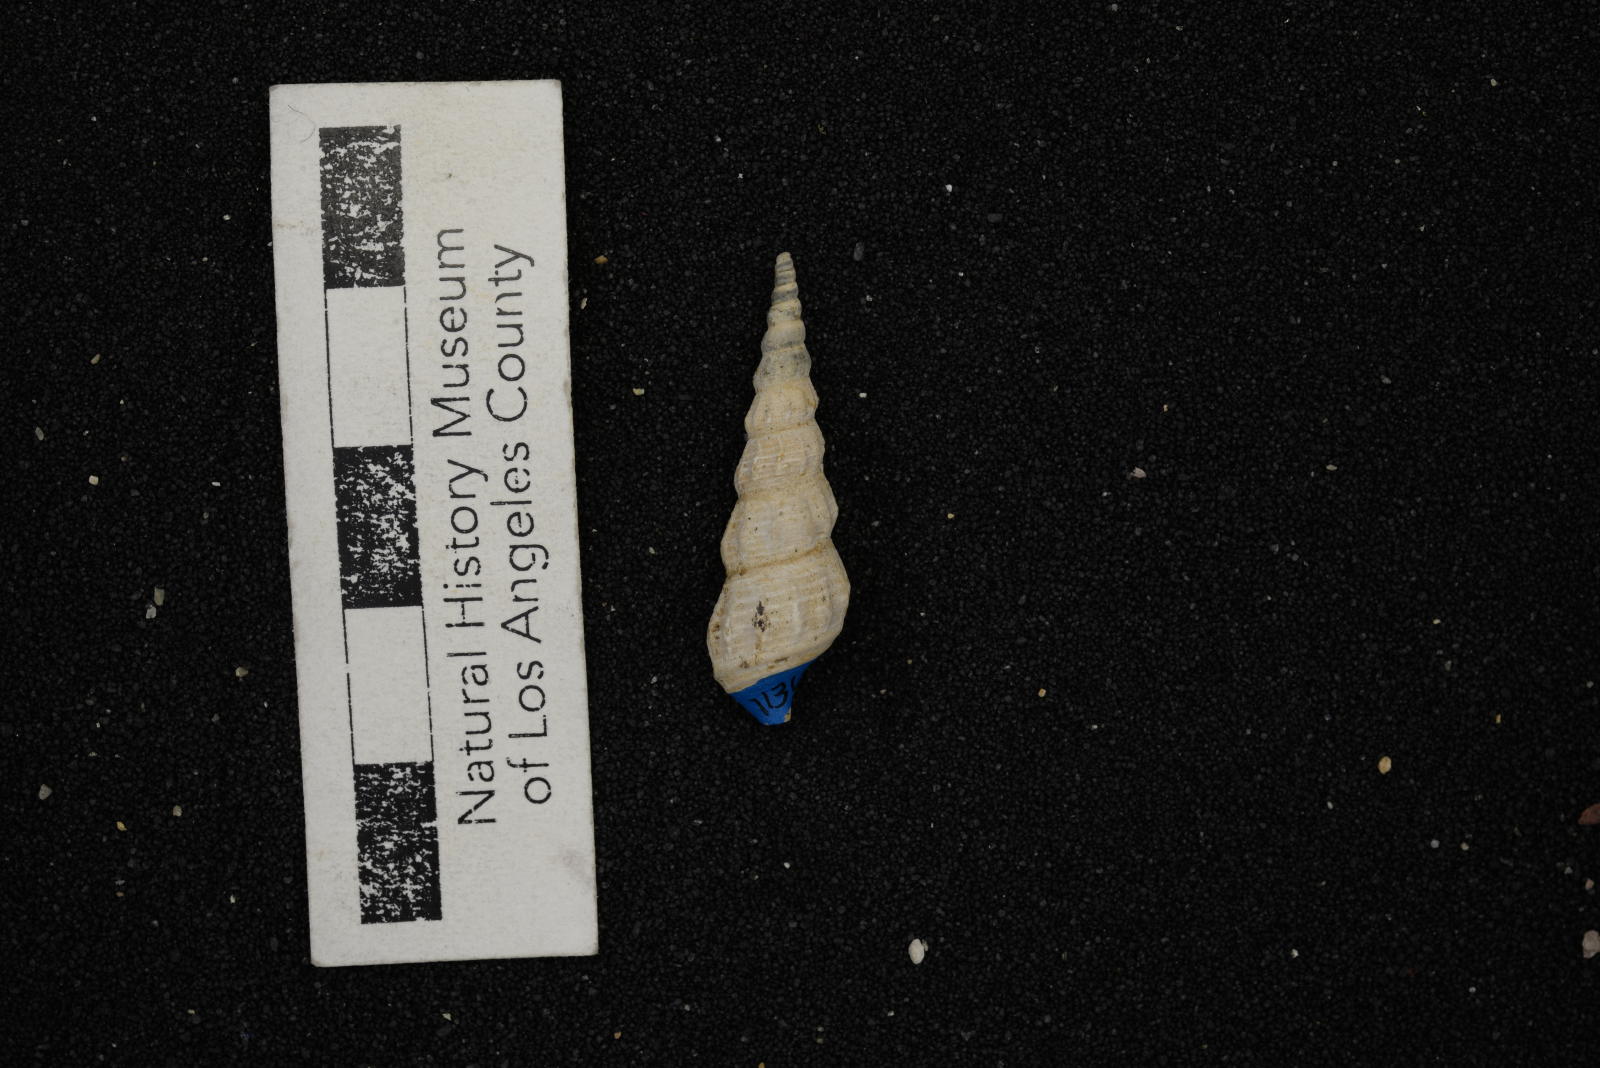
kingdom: Animalia
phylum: Mollusca
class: Gastropoda
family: Metacerithiidae
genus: Cimolithium
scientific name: Cimolithium eleanorae
